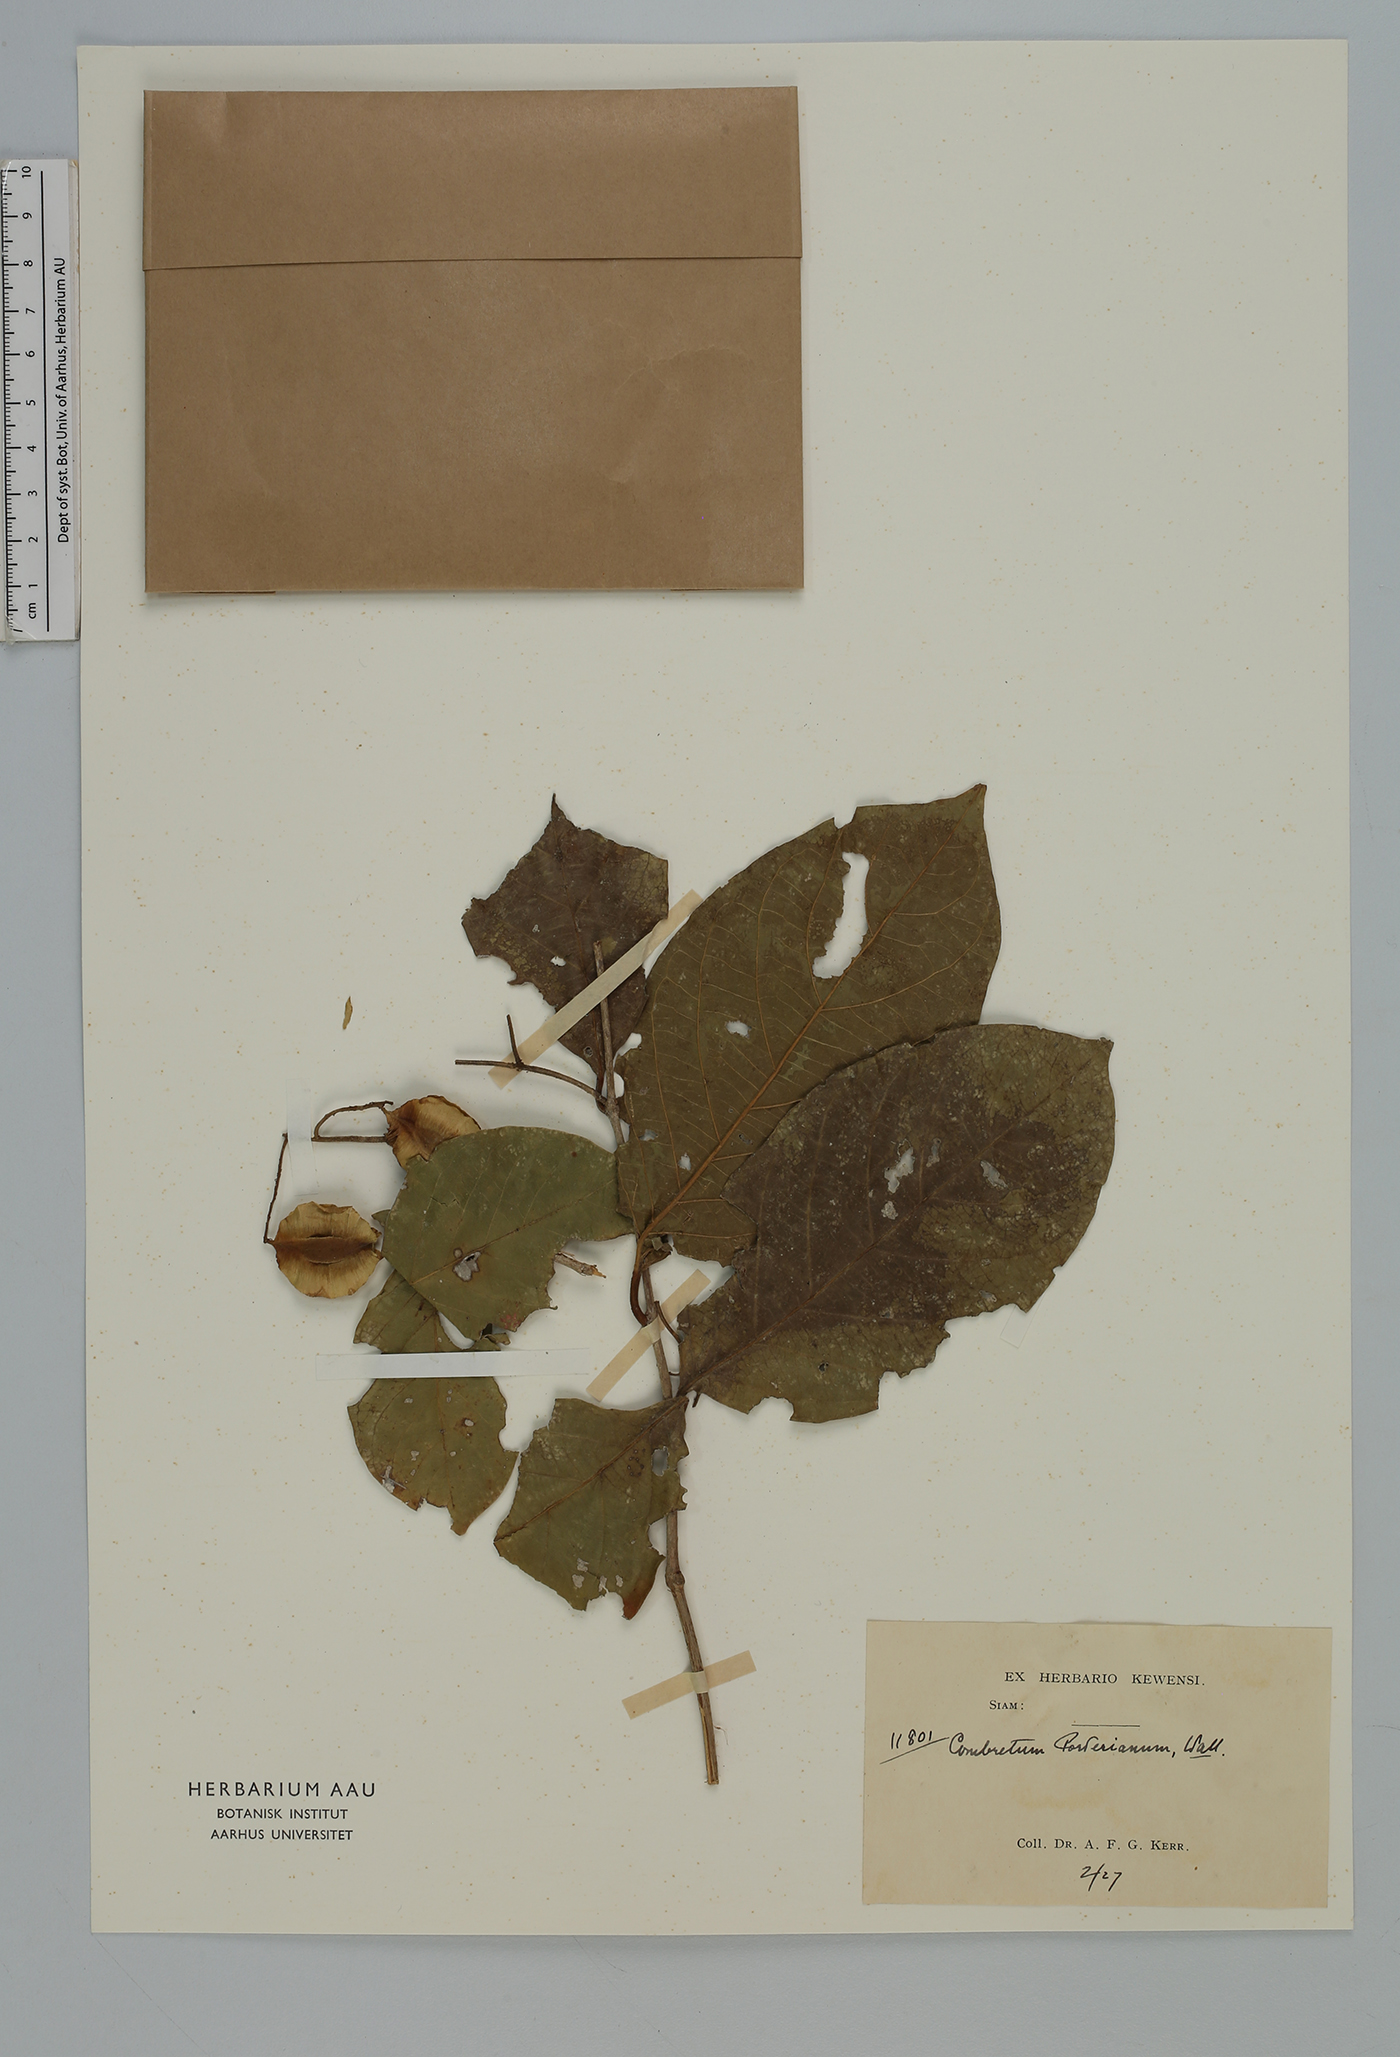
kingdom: Plantae
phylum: Tracheophyta
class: Magnoliopsida
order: Myrtales
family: Combretaceae
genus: Combretum
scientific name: Combretum porterianum
